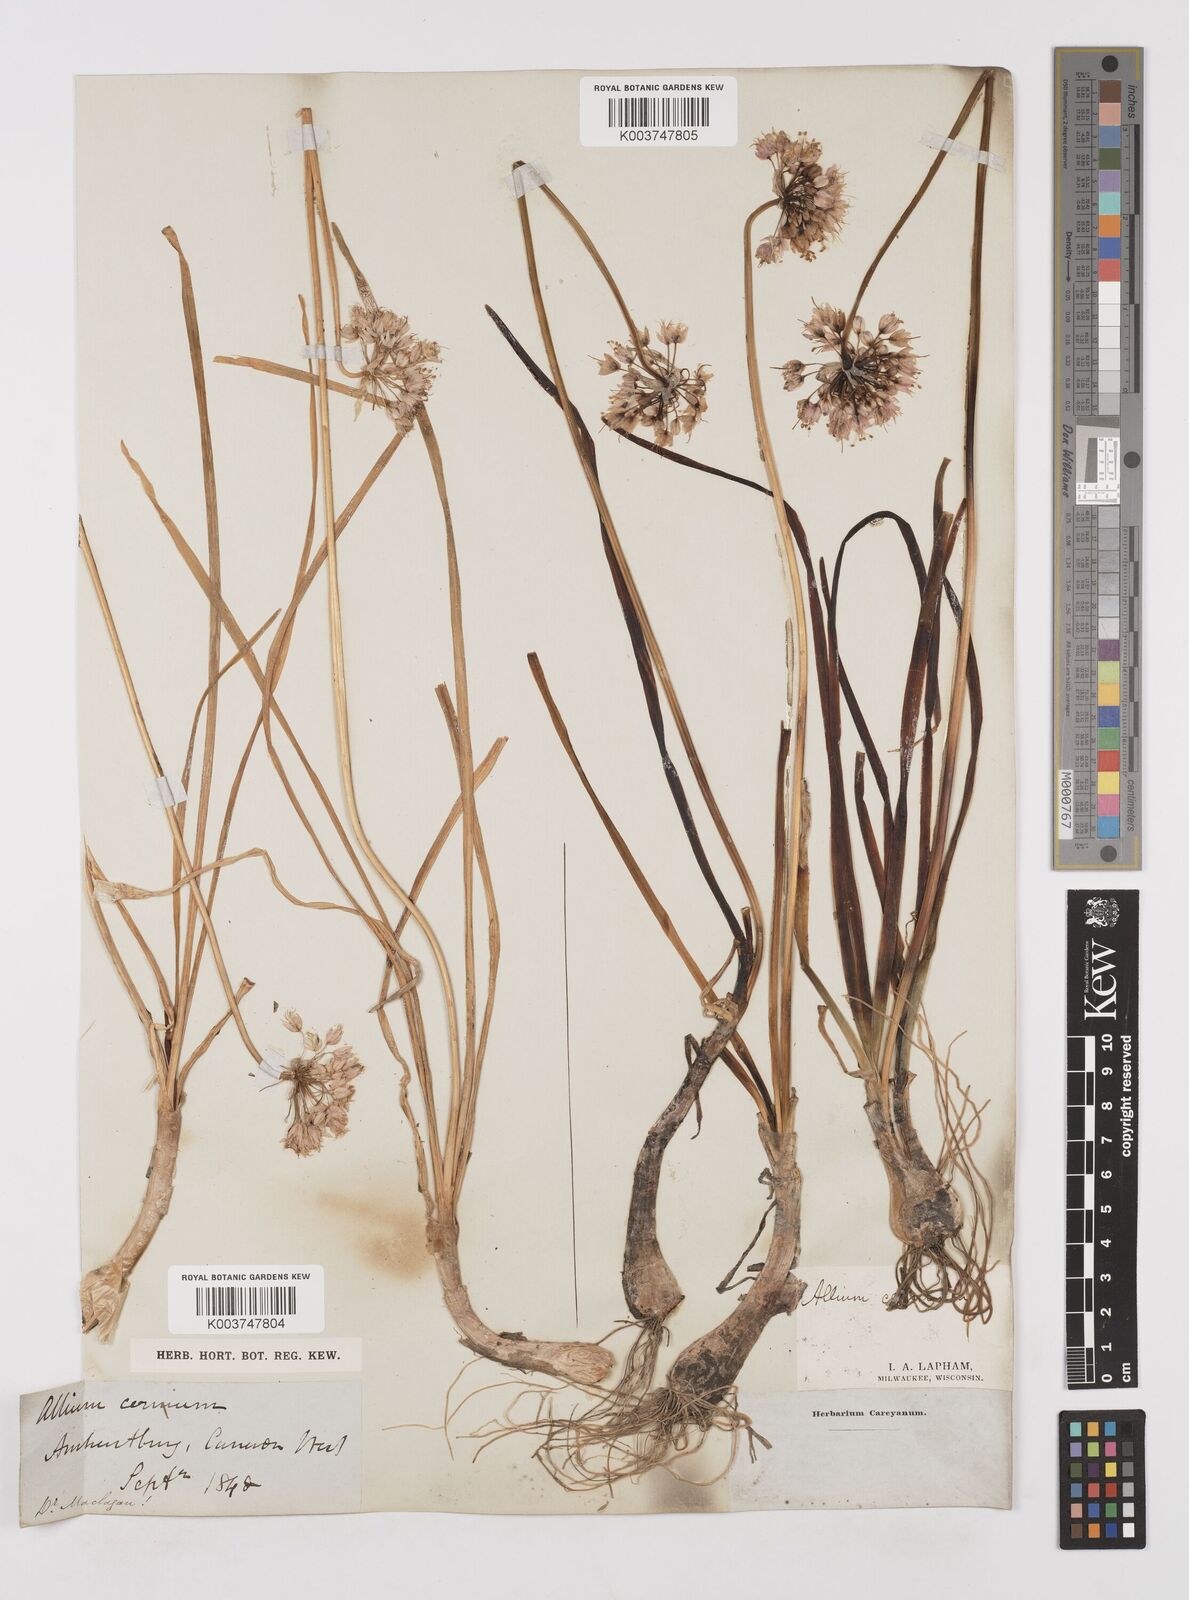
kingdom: Plantae
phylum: Tracheophyta
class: Liliopsida
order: Asparagales
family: Amaryllidaceae
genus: Allium
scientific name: Allium cernuum
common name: Nodding onion
